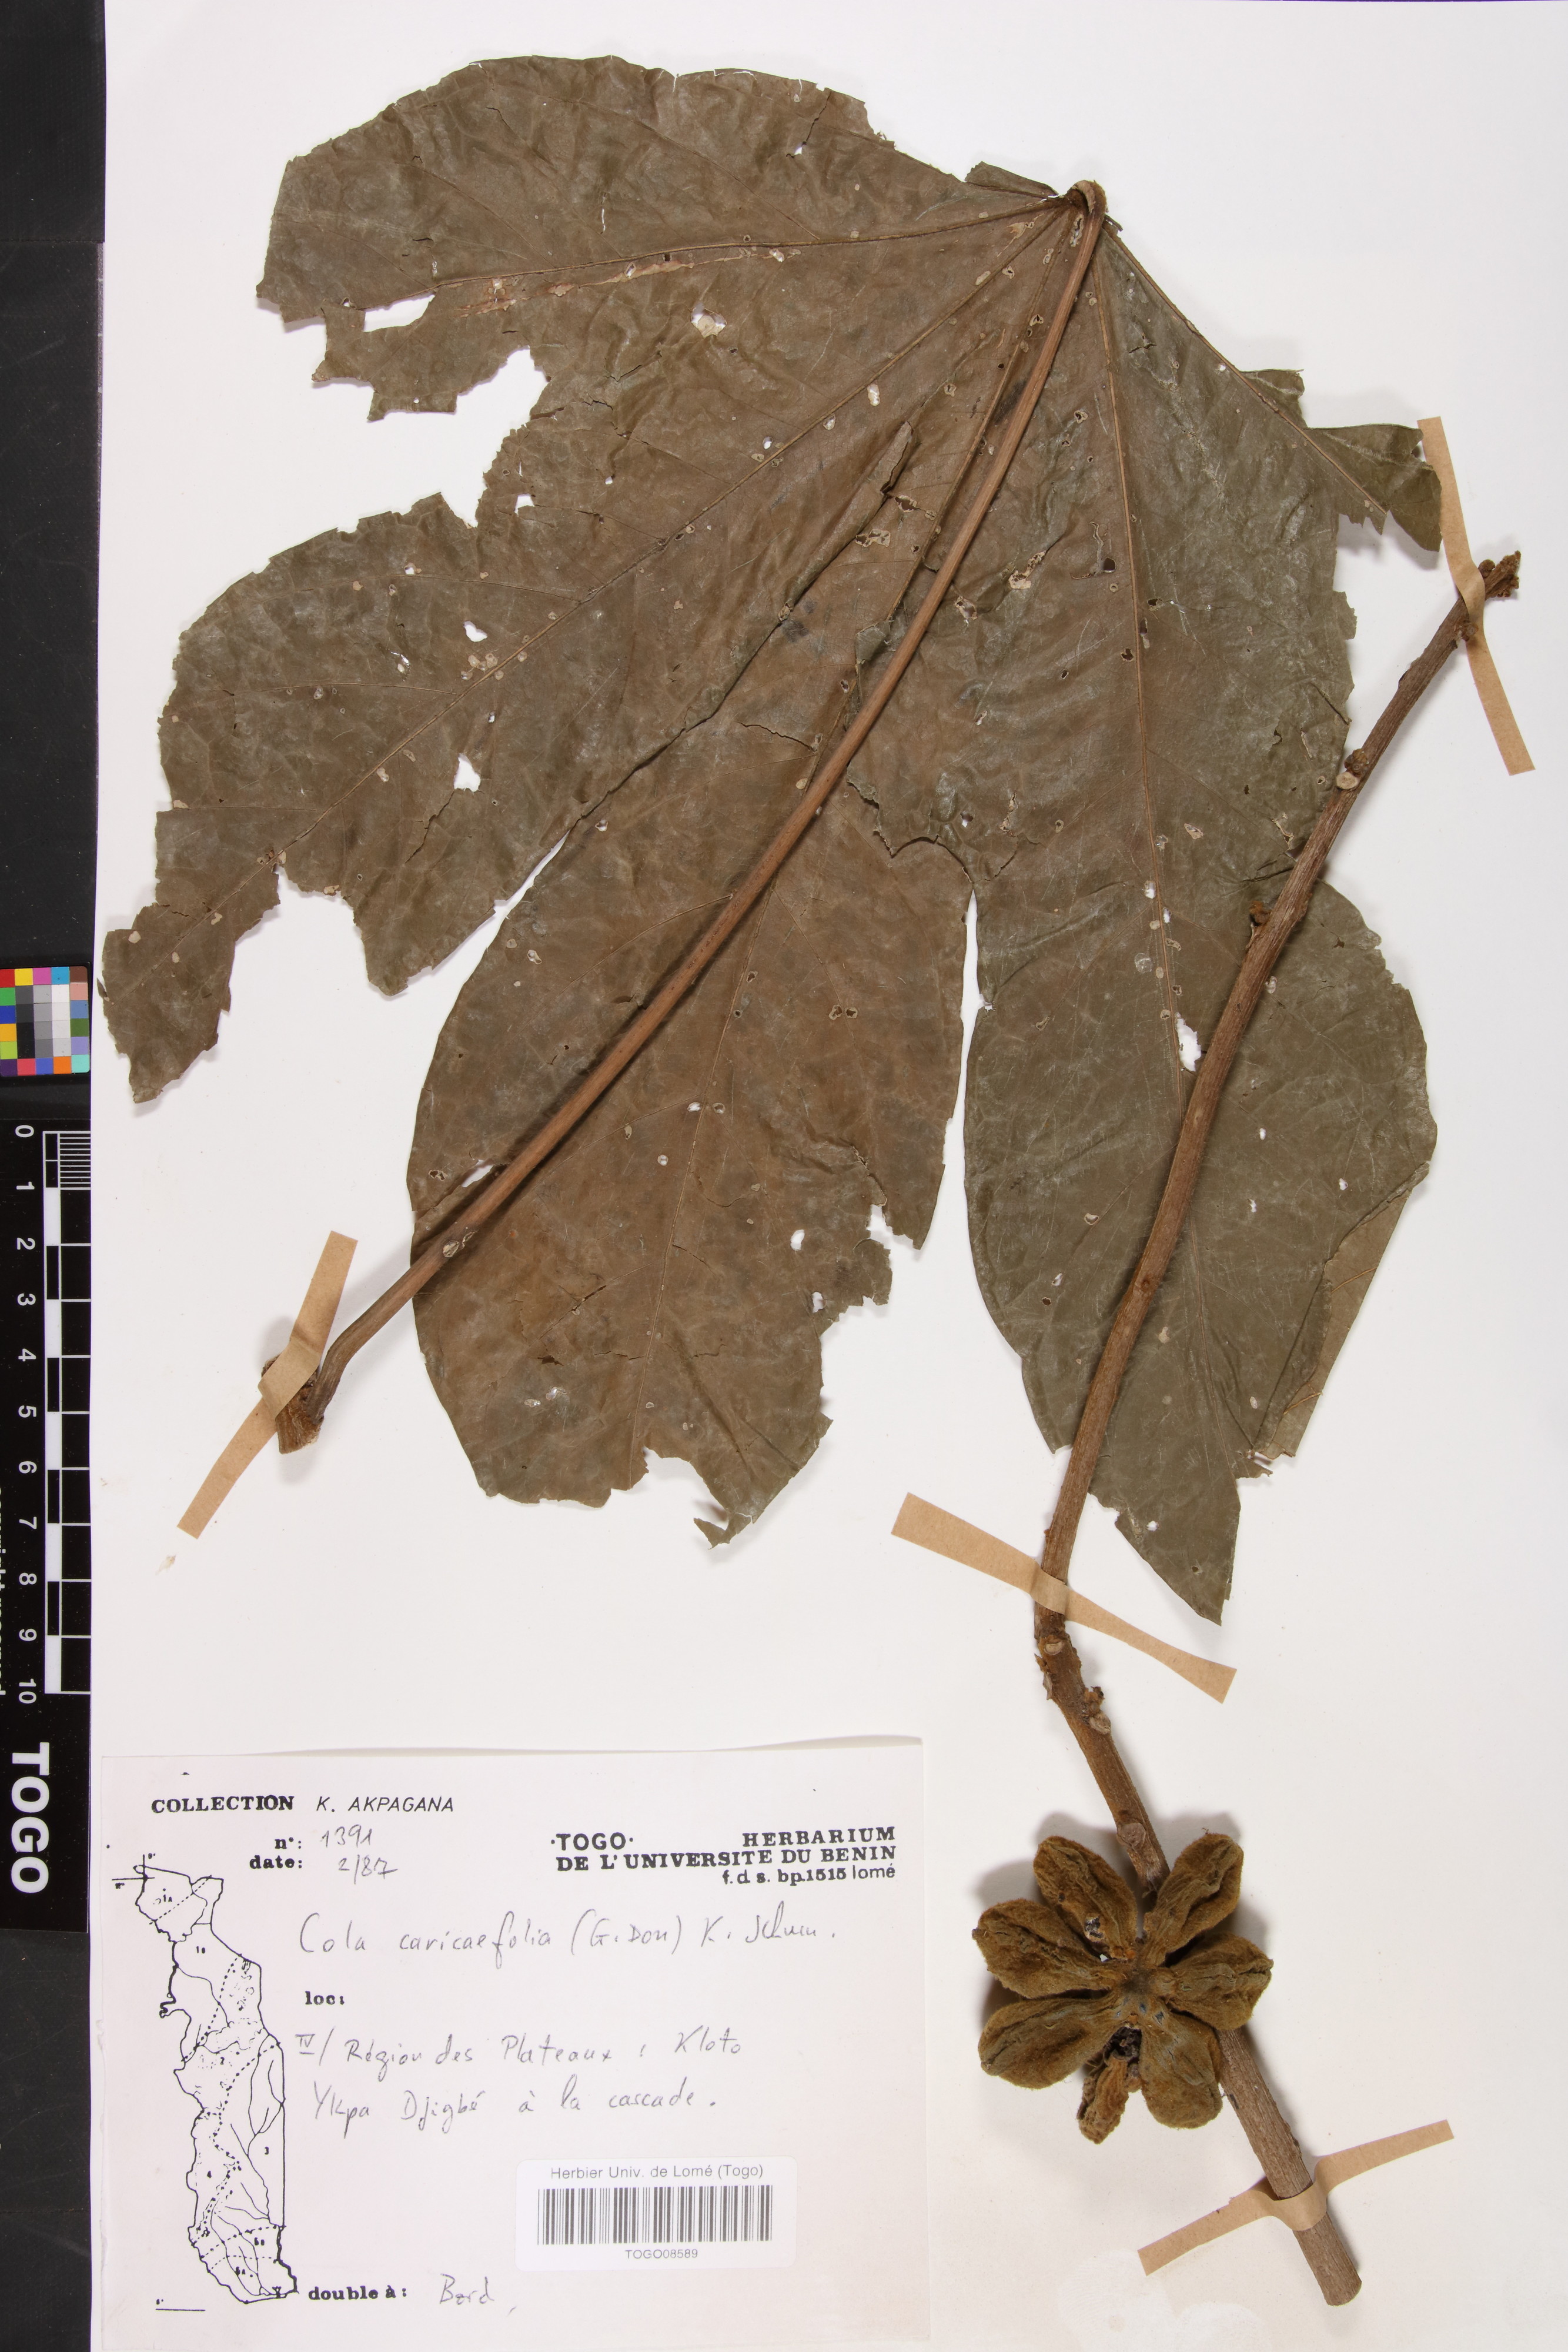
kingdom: Plantae
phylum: Tracheophyta
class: Magnoliopsida
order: Malvales
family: Malvaceae
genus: Cola
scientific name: Cola caricifolia
